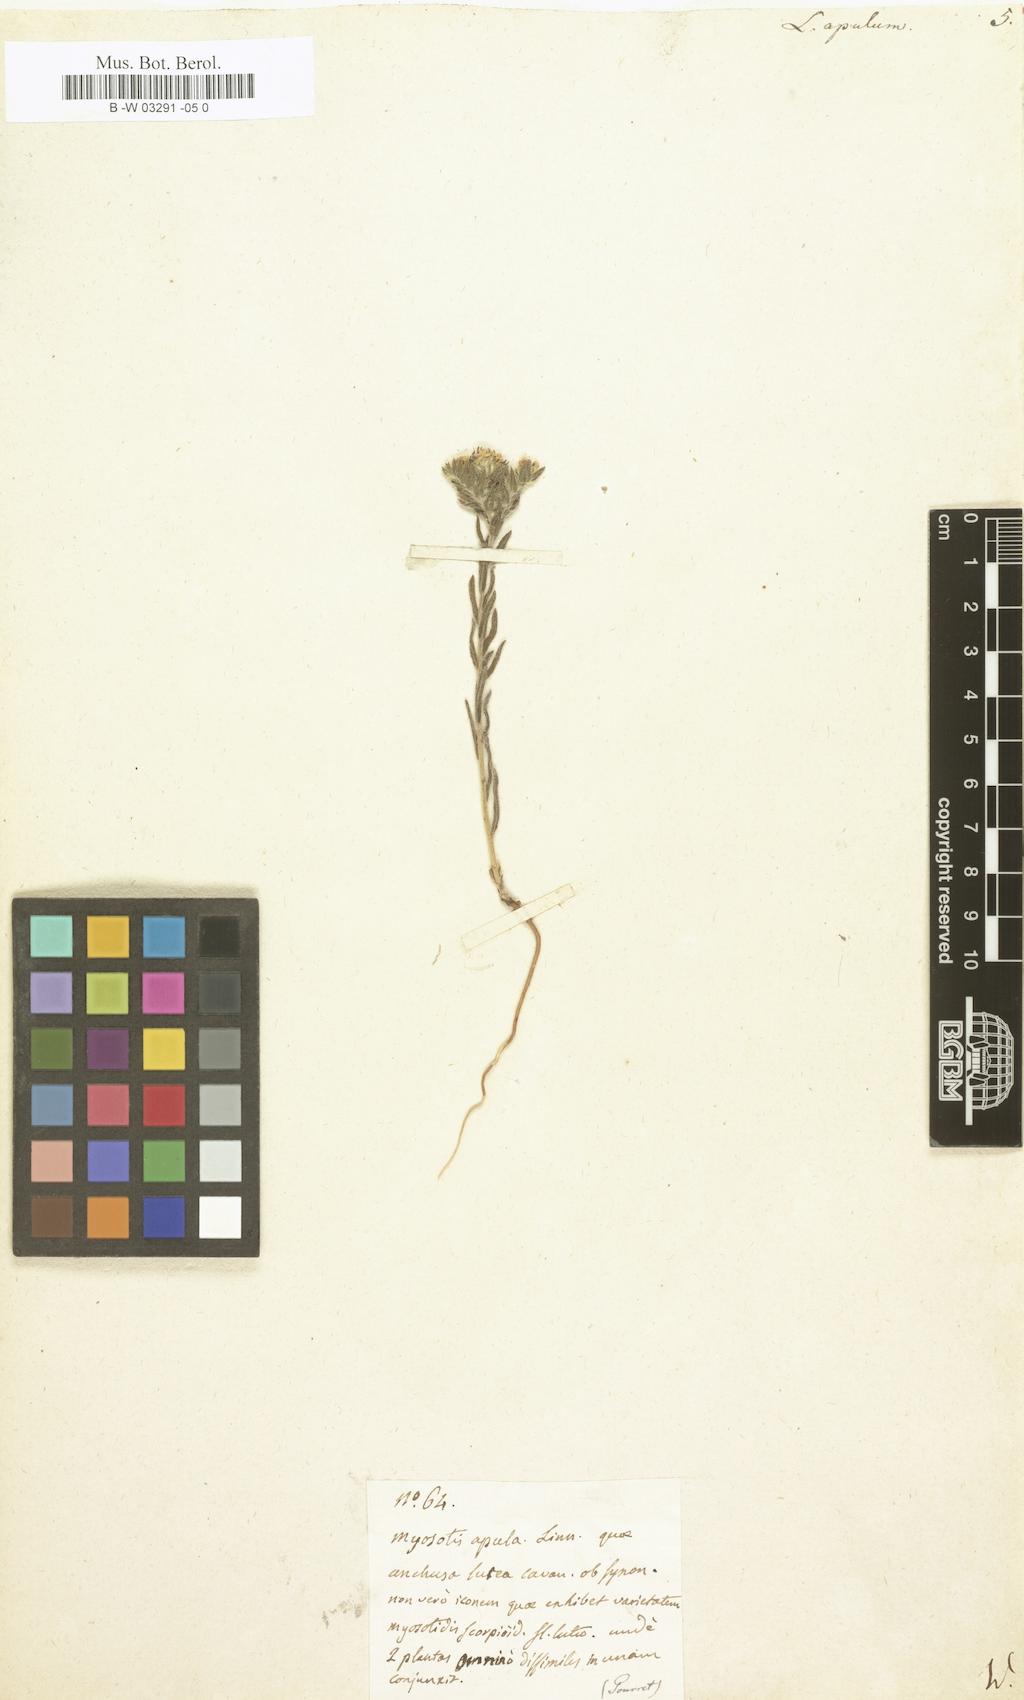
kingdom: Plantae
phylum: Tracheophyta
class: Magnoliopsida
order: Boraginales
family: Boraginaceae
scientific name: Boraginaceae
